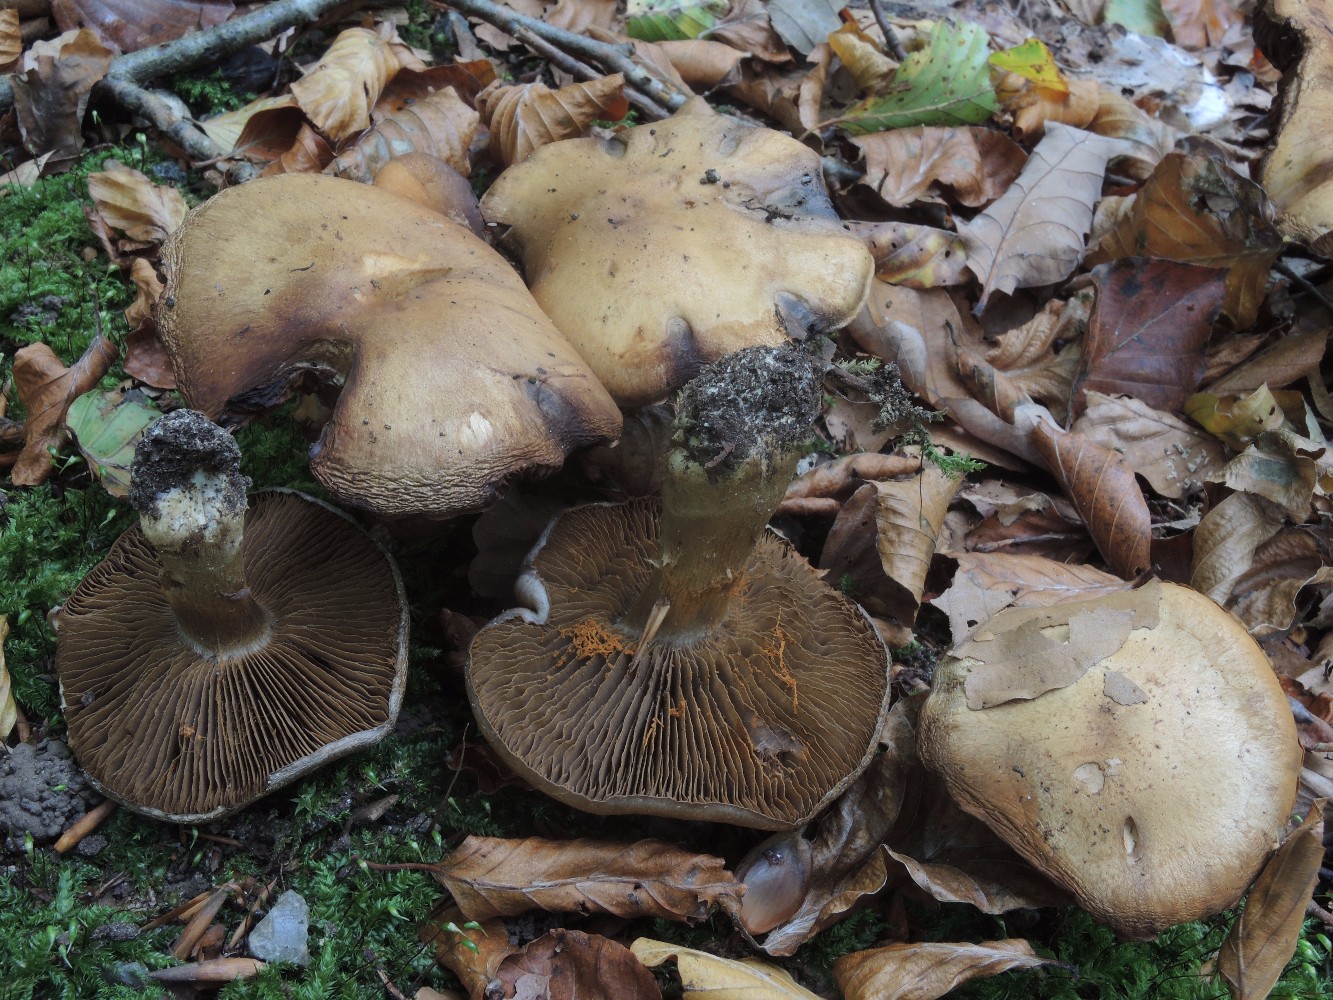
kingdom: Fungi
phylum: Basidiomycota
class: Agaricomycetes
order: Agaricales
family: Cortinariaceae
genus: Cortinarius
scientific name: Cortinarius
